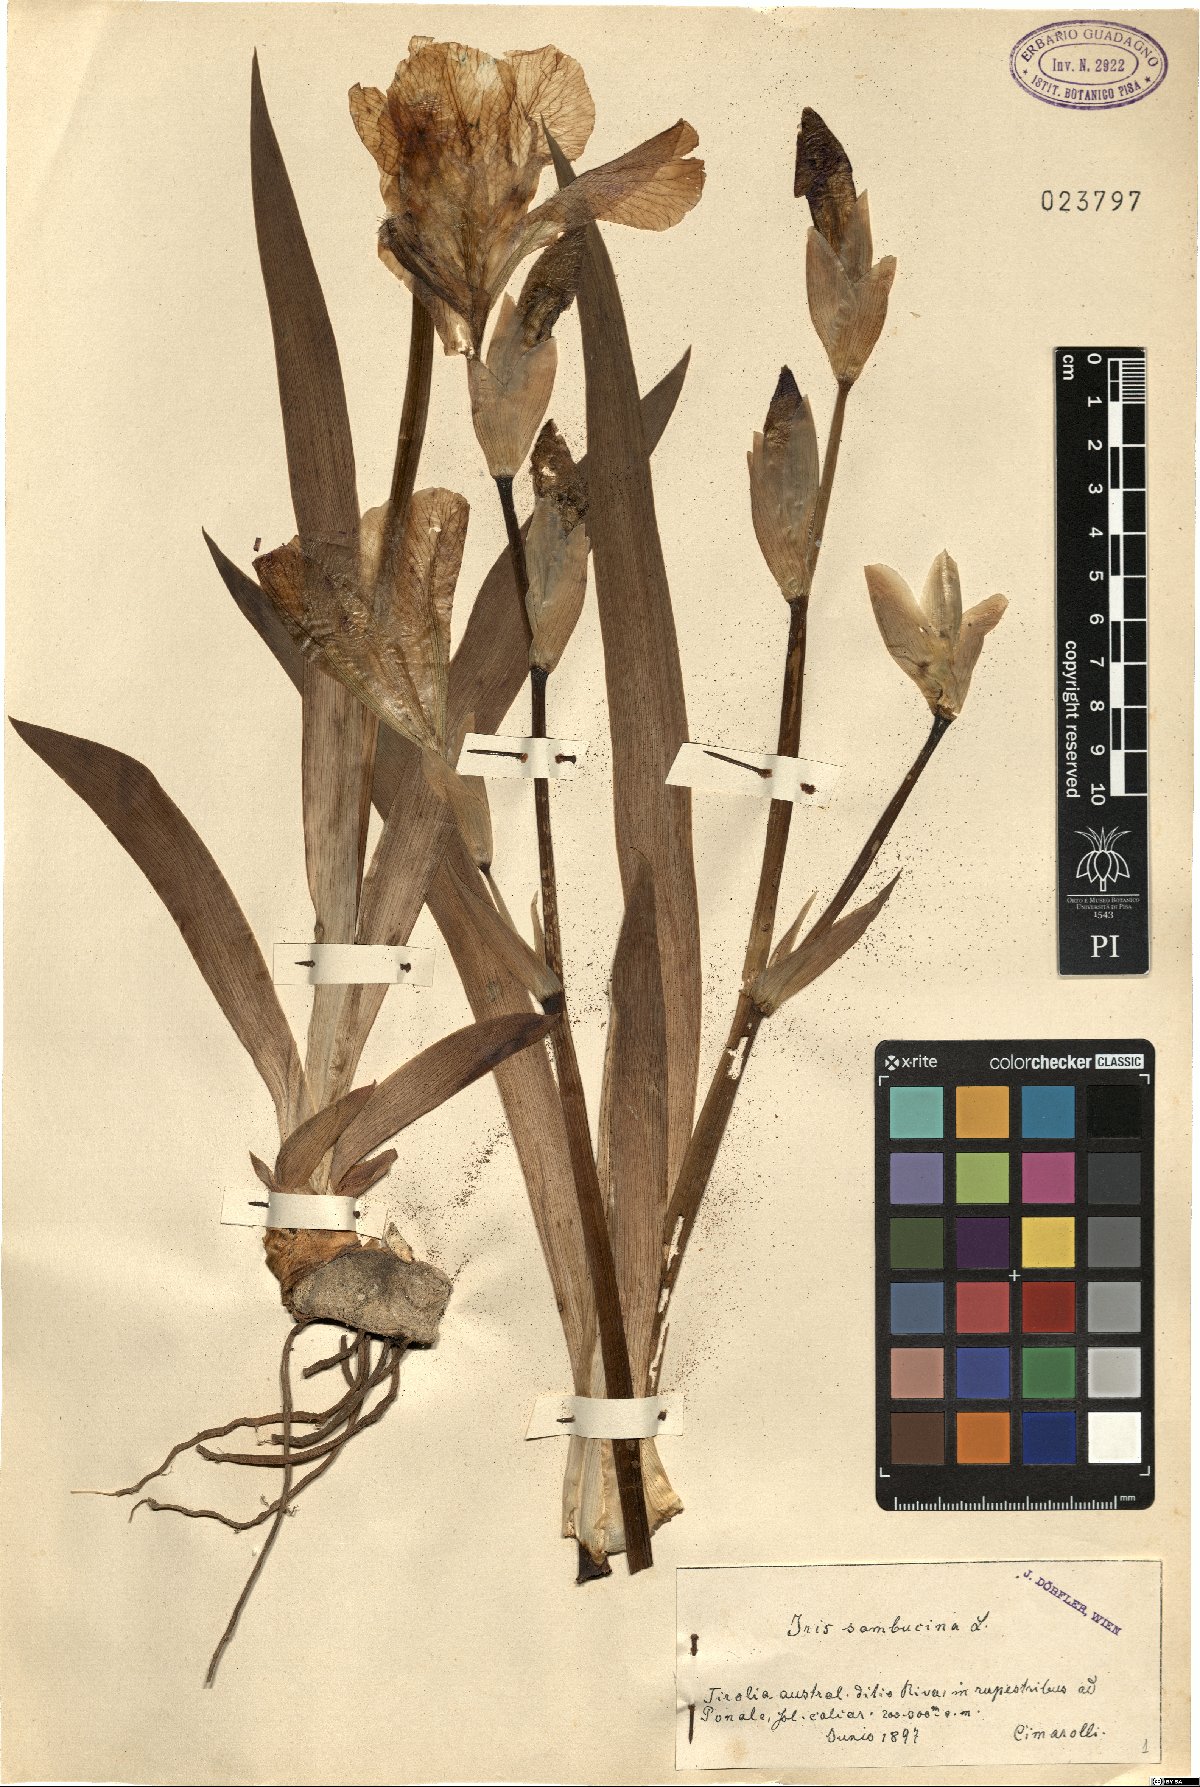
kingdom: Plantae
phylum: Tracheophyta
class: Liliopsida
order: Asparagales
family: Iridaceae
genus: Iris
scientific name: Iris germanica
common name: German iris
